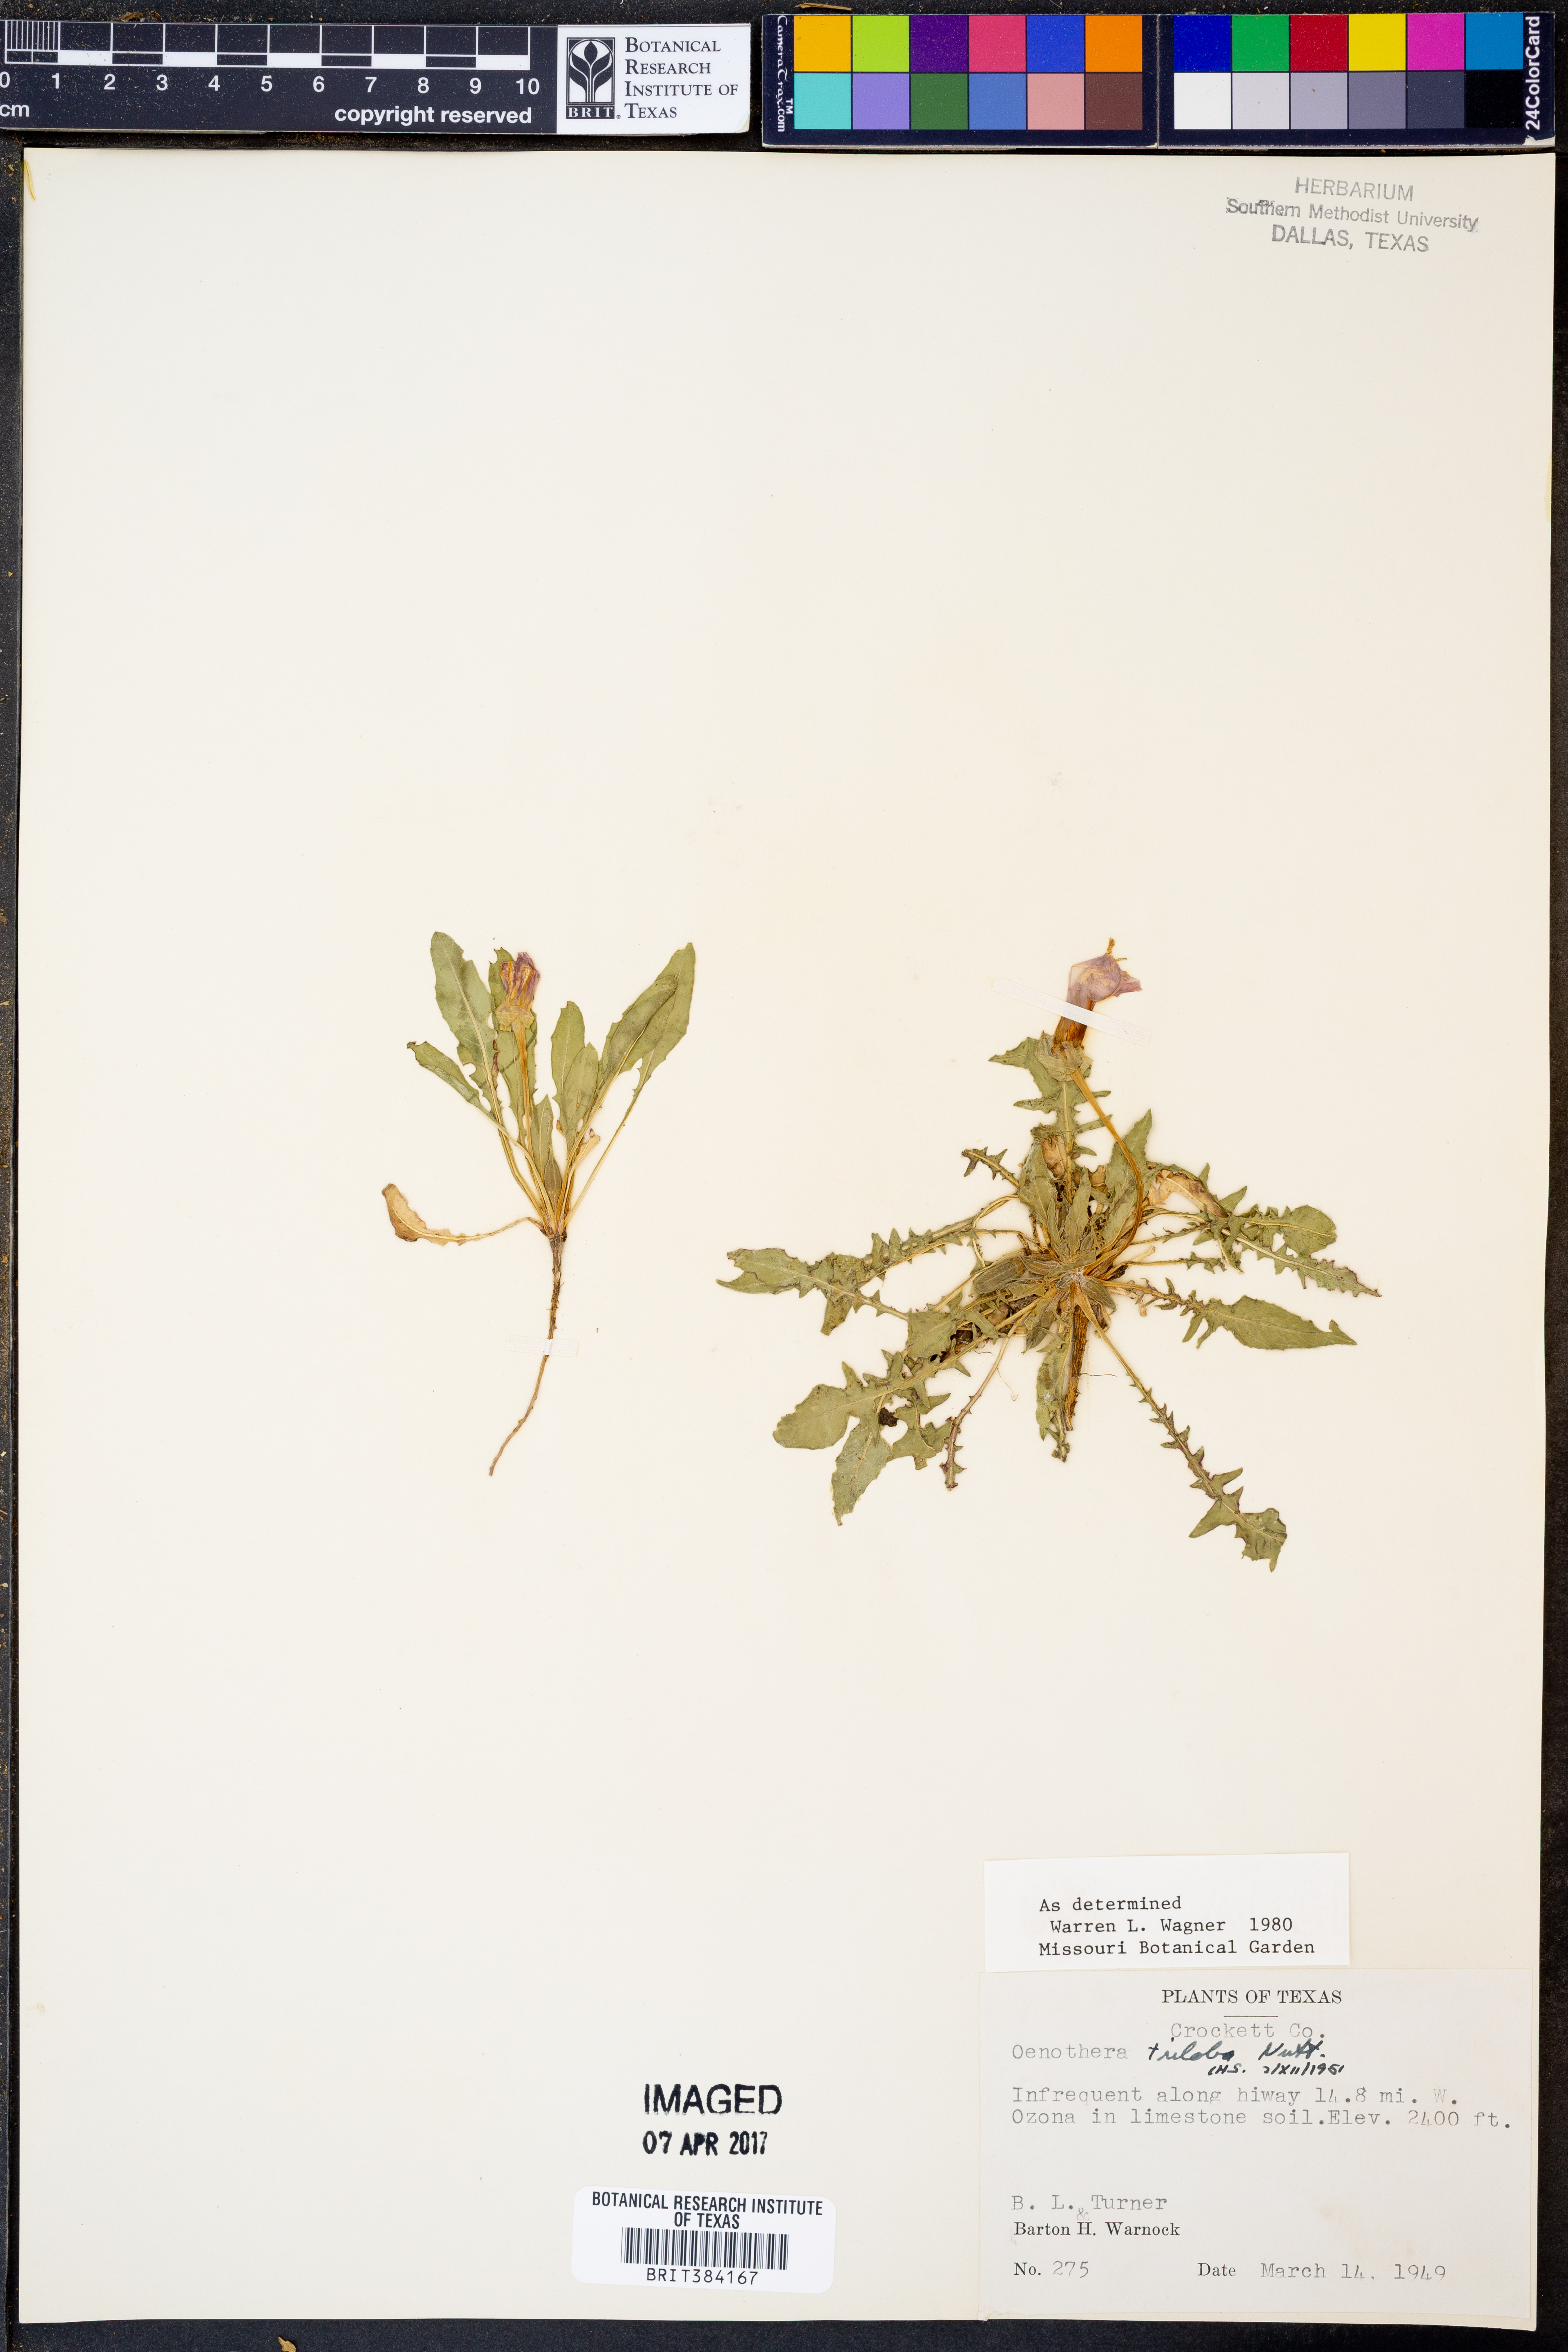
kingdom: Plantae
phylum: Tracheophyta
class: Magnoliopsida
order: Myrtales
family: Onagraceae
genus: Oenothera
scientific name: Oenothera triloba
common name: Sessile evening-primrose
